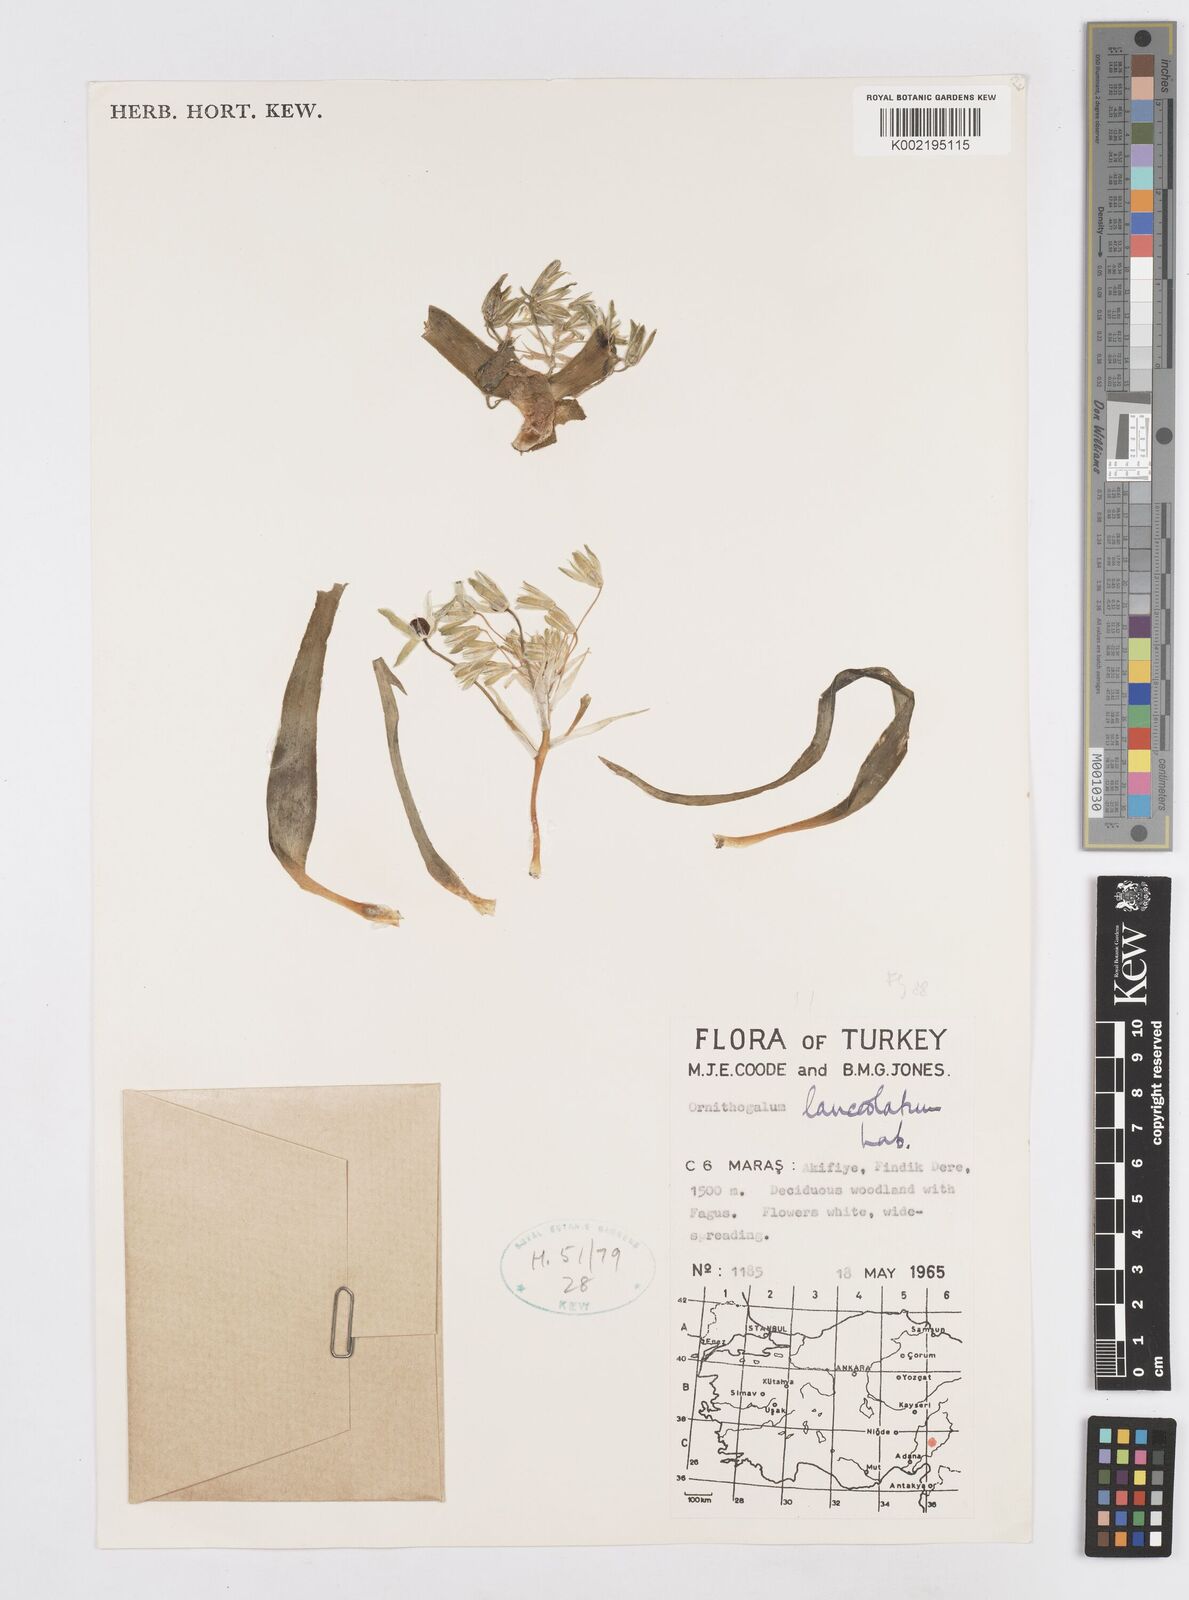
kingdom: Plantae
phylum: Tracheophyta
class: Liliopsida
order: Asparagales
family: Asparagaceae
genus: Ornithogalum
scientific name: Ornithogalum lanceolatum
